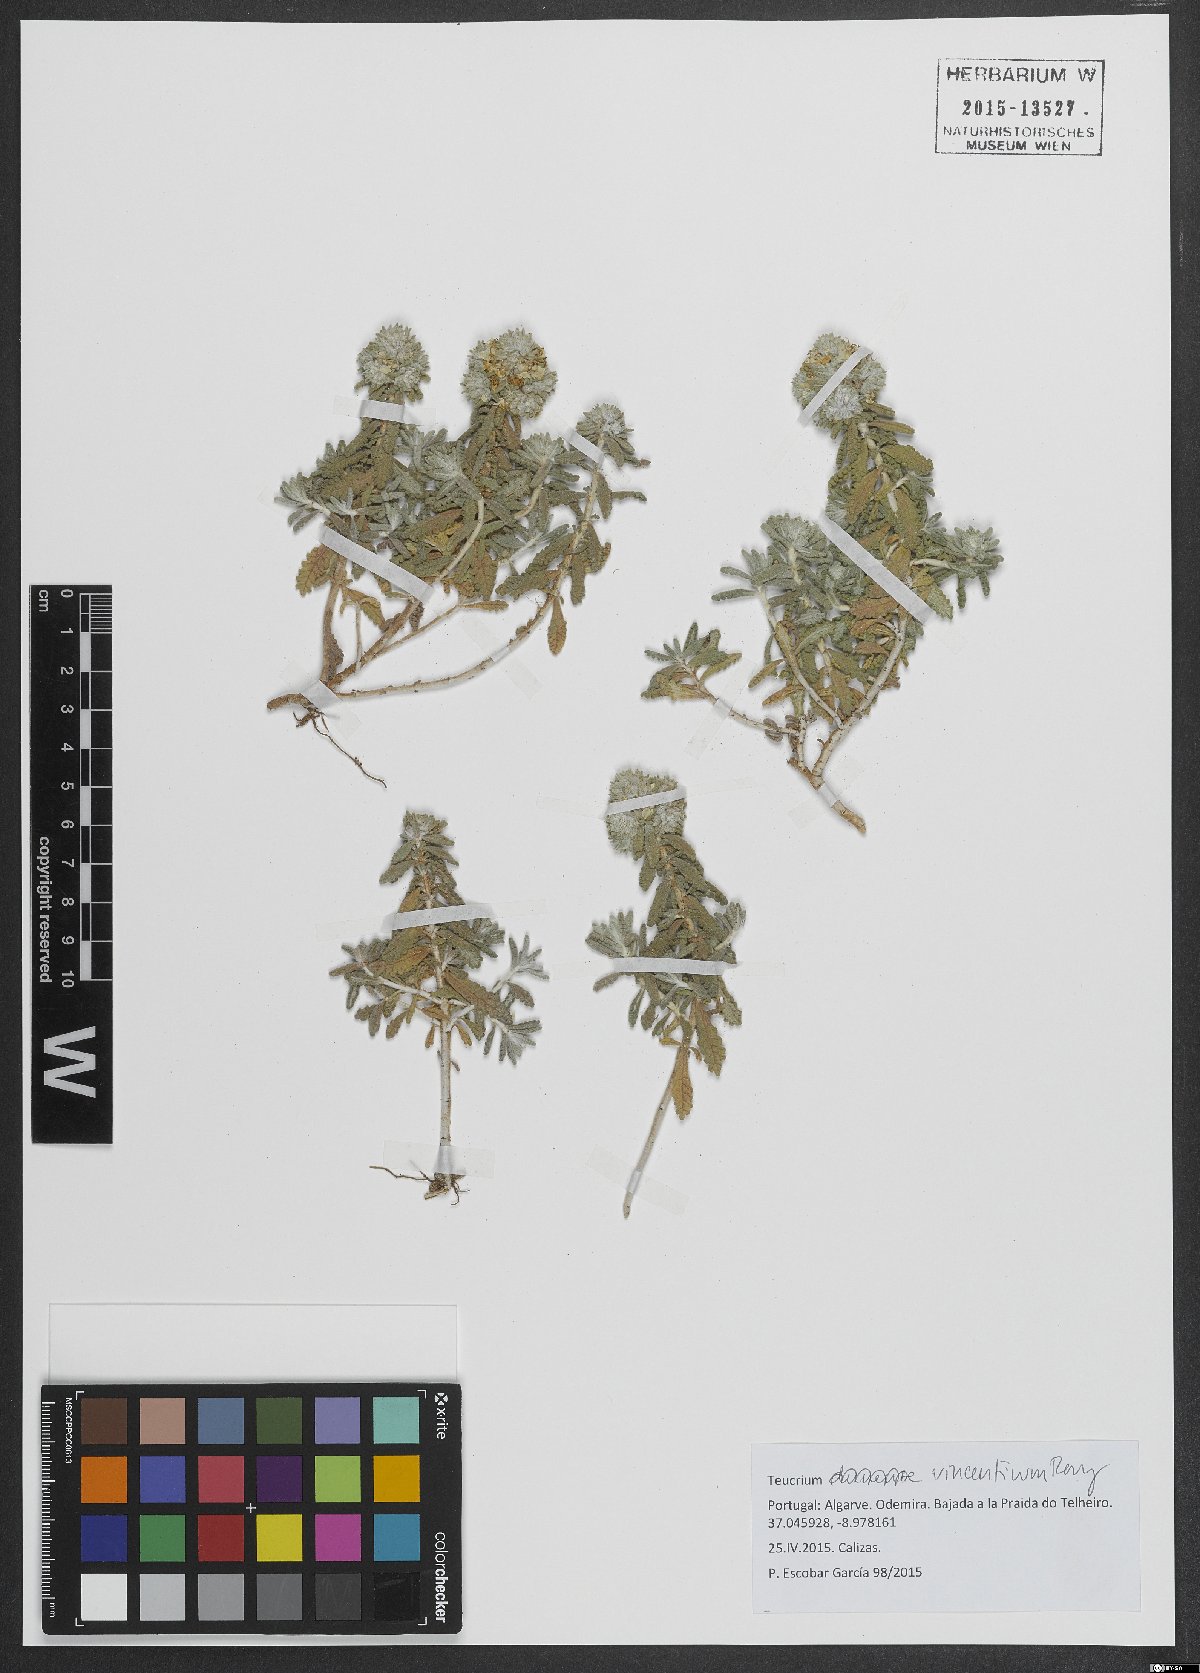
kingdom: Plantae
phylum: Tracheophyta
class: Magnoliopsida
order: Lamiales
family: Lamiaceae
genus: Teucrium
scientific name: Teucrium vincentinum
